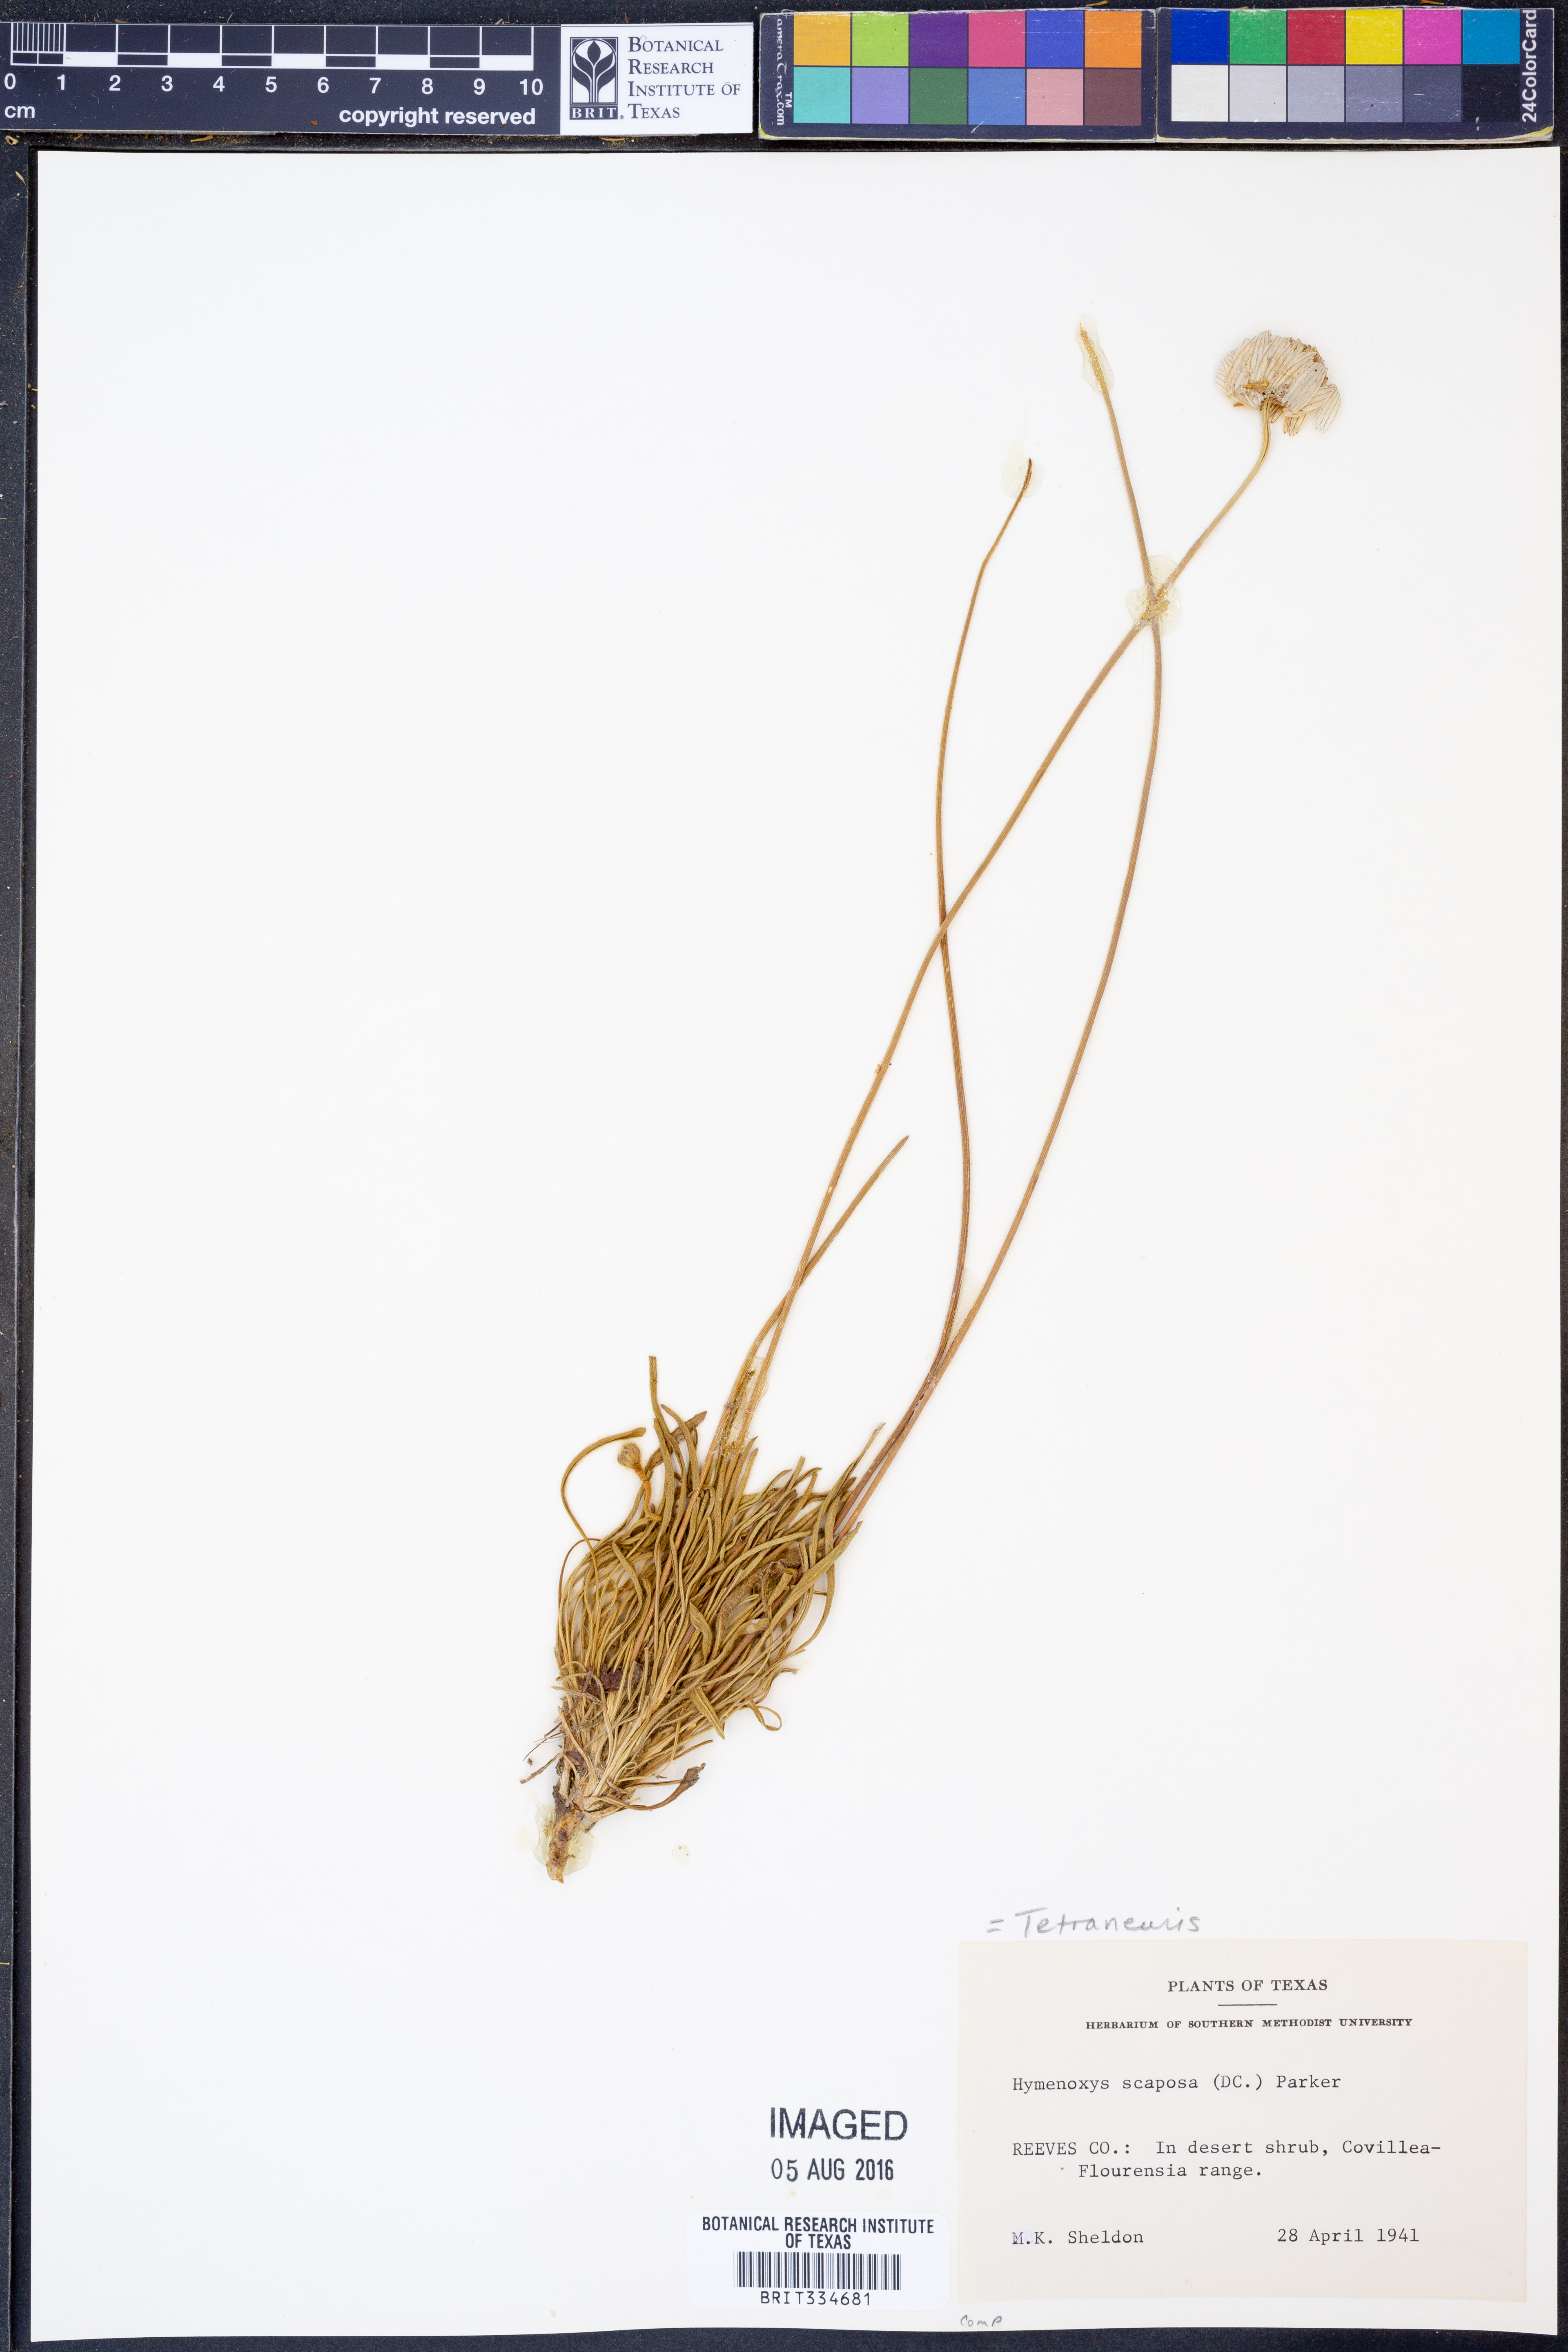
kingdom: Plantae
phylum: Tracheophyta
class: Magnoliopsida
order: Asterales
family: Asteraceae
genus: Tetraneuris
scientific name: Tetraneuris scaposa
